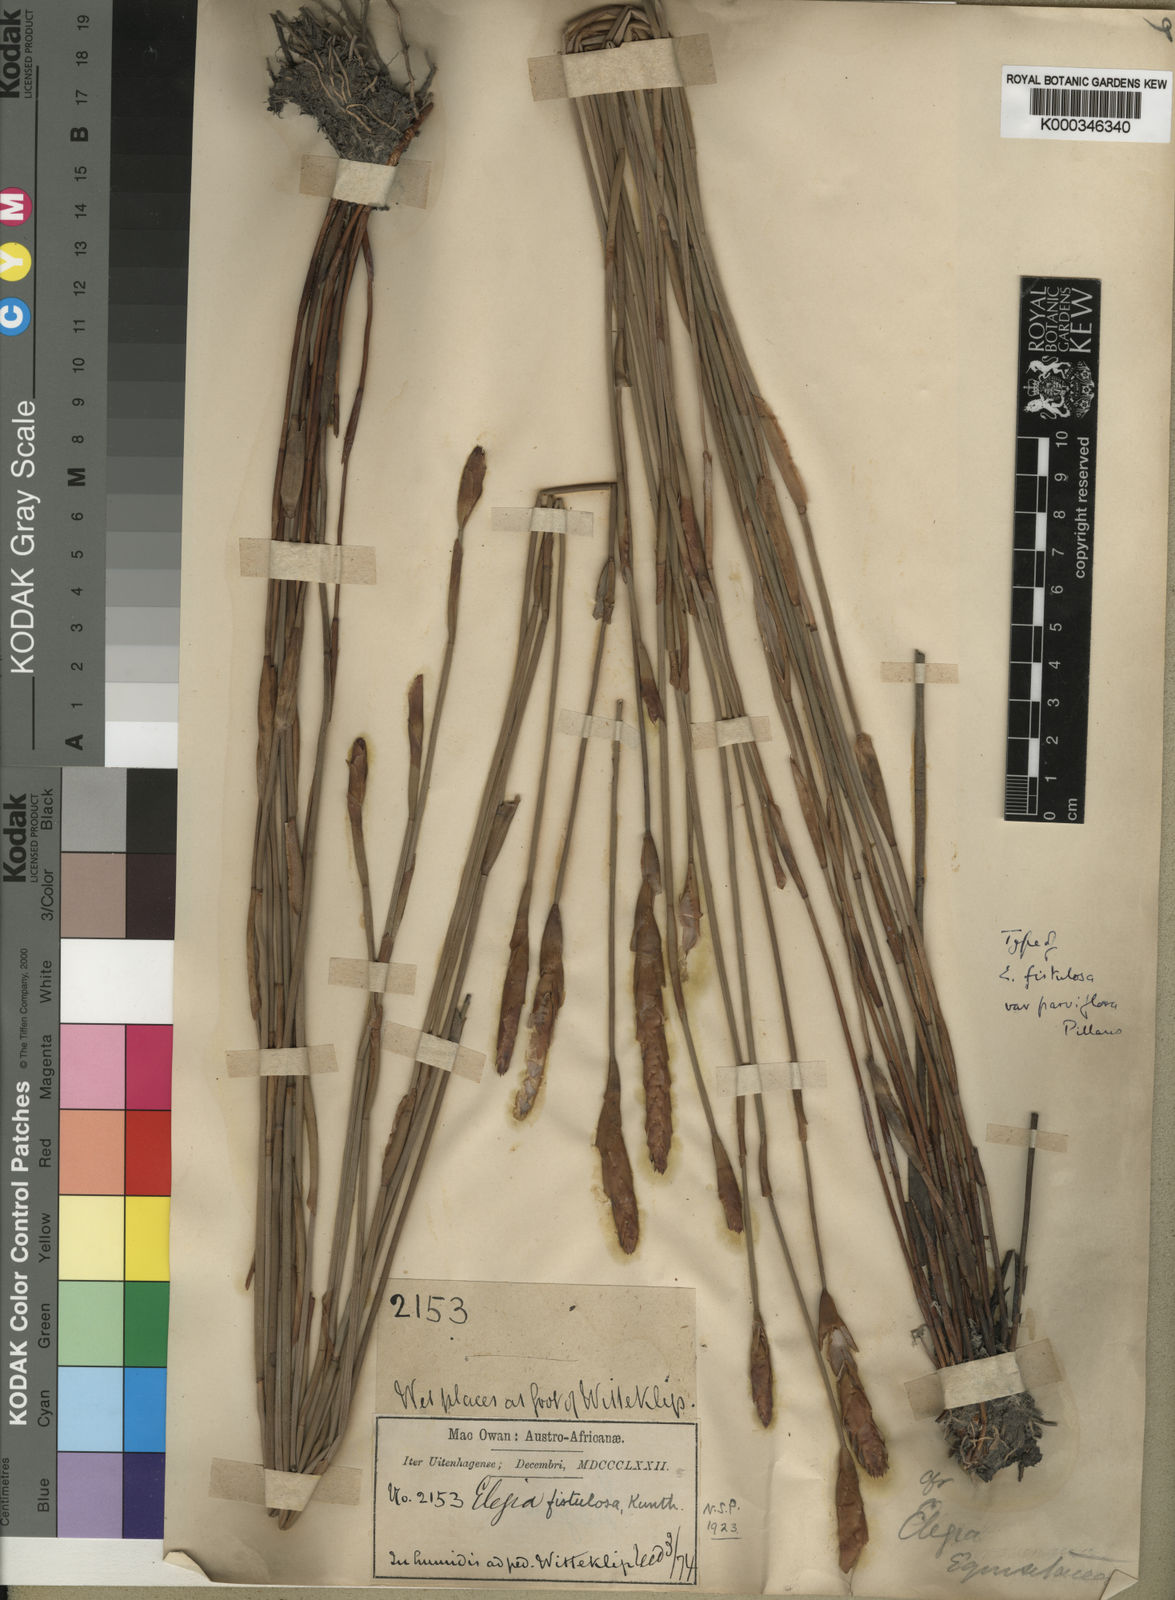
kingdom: Plantae
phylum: Tracheophyta
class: Liliopsida
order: Poales
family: Restionaceae
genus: Elegia
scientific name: Elegia fistulosa
